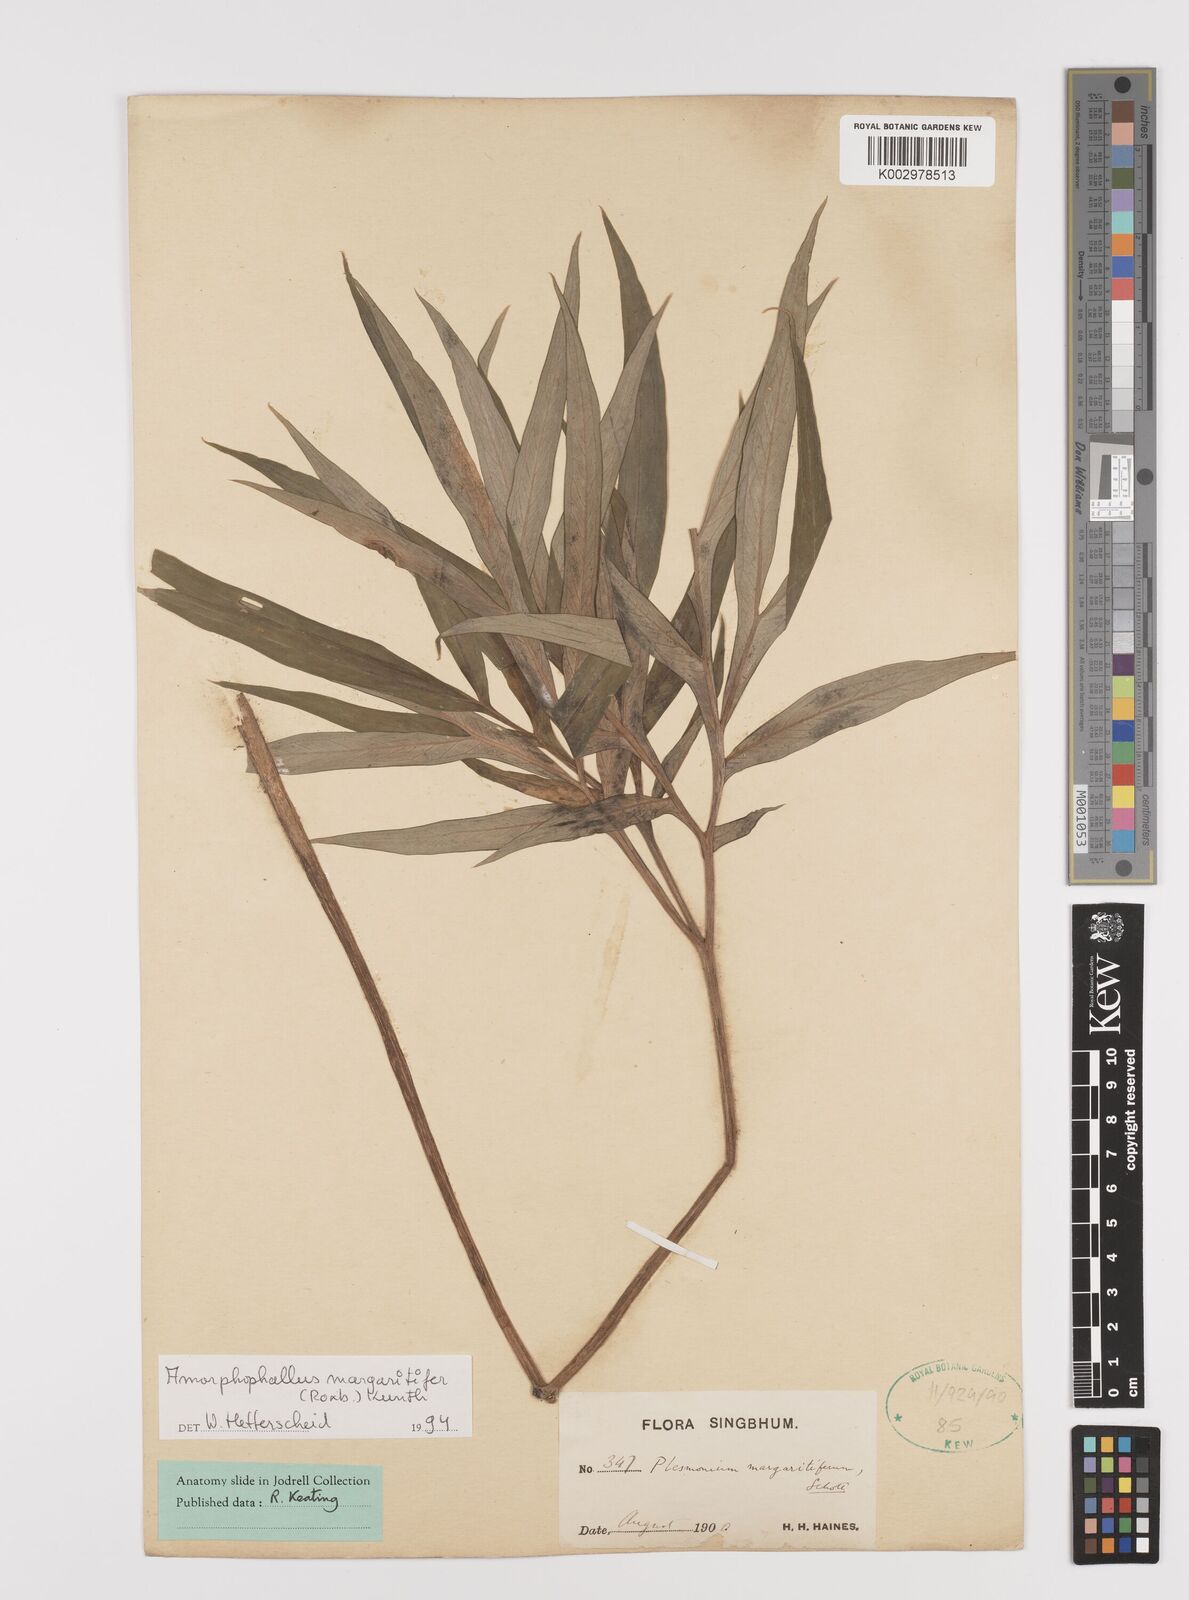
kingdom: Plantae
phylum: Tracheophyta
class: Liliopsida
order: Alismatales
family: Araceae
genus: Amorphophallus
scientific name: Amorphophallus margaritifer
